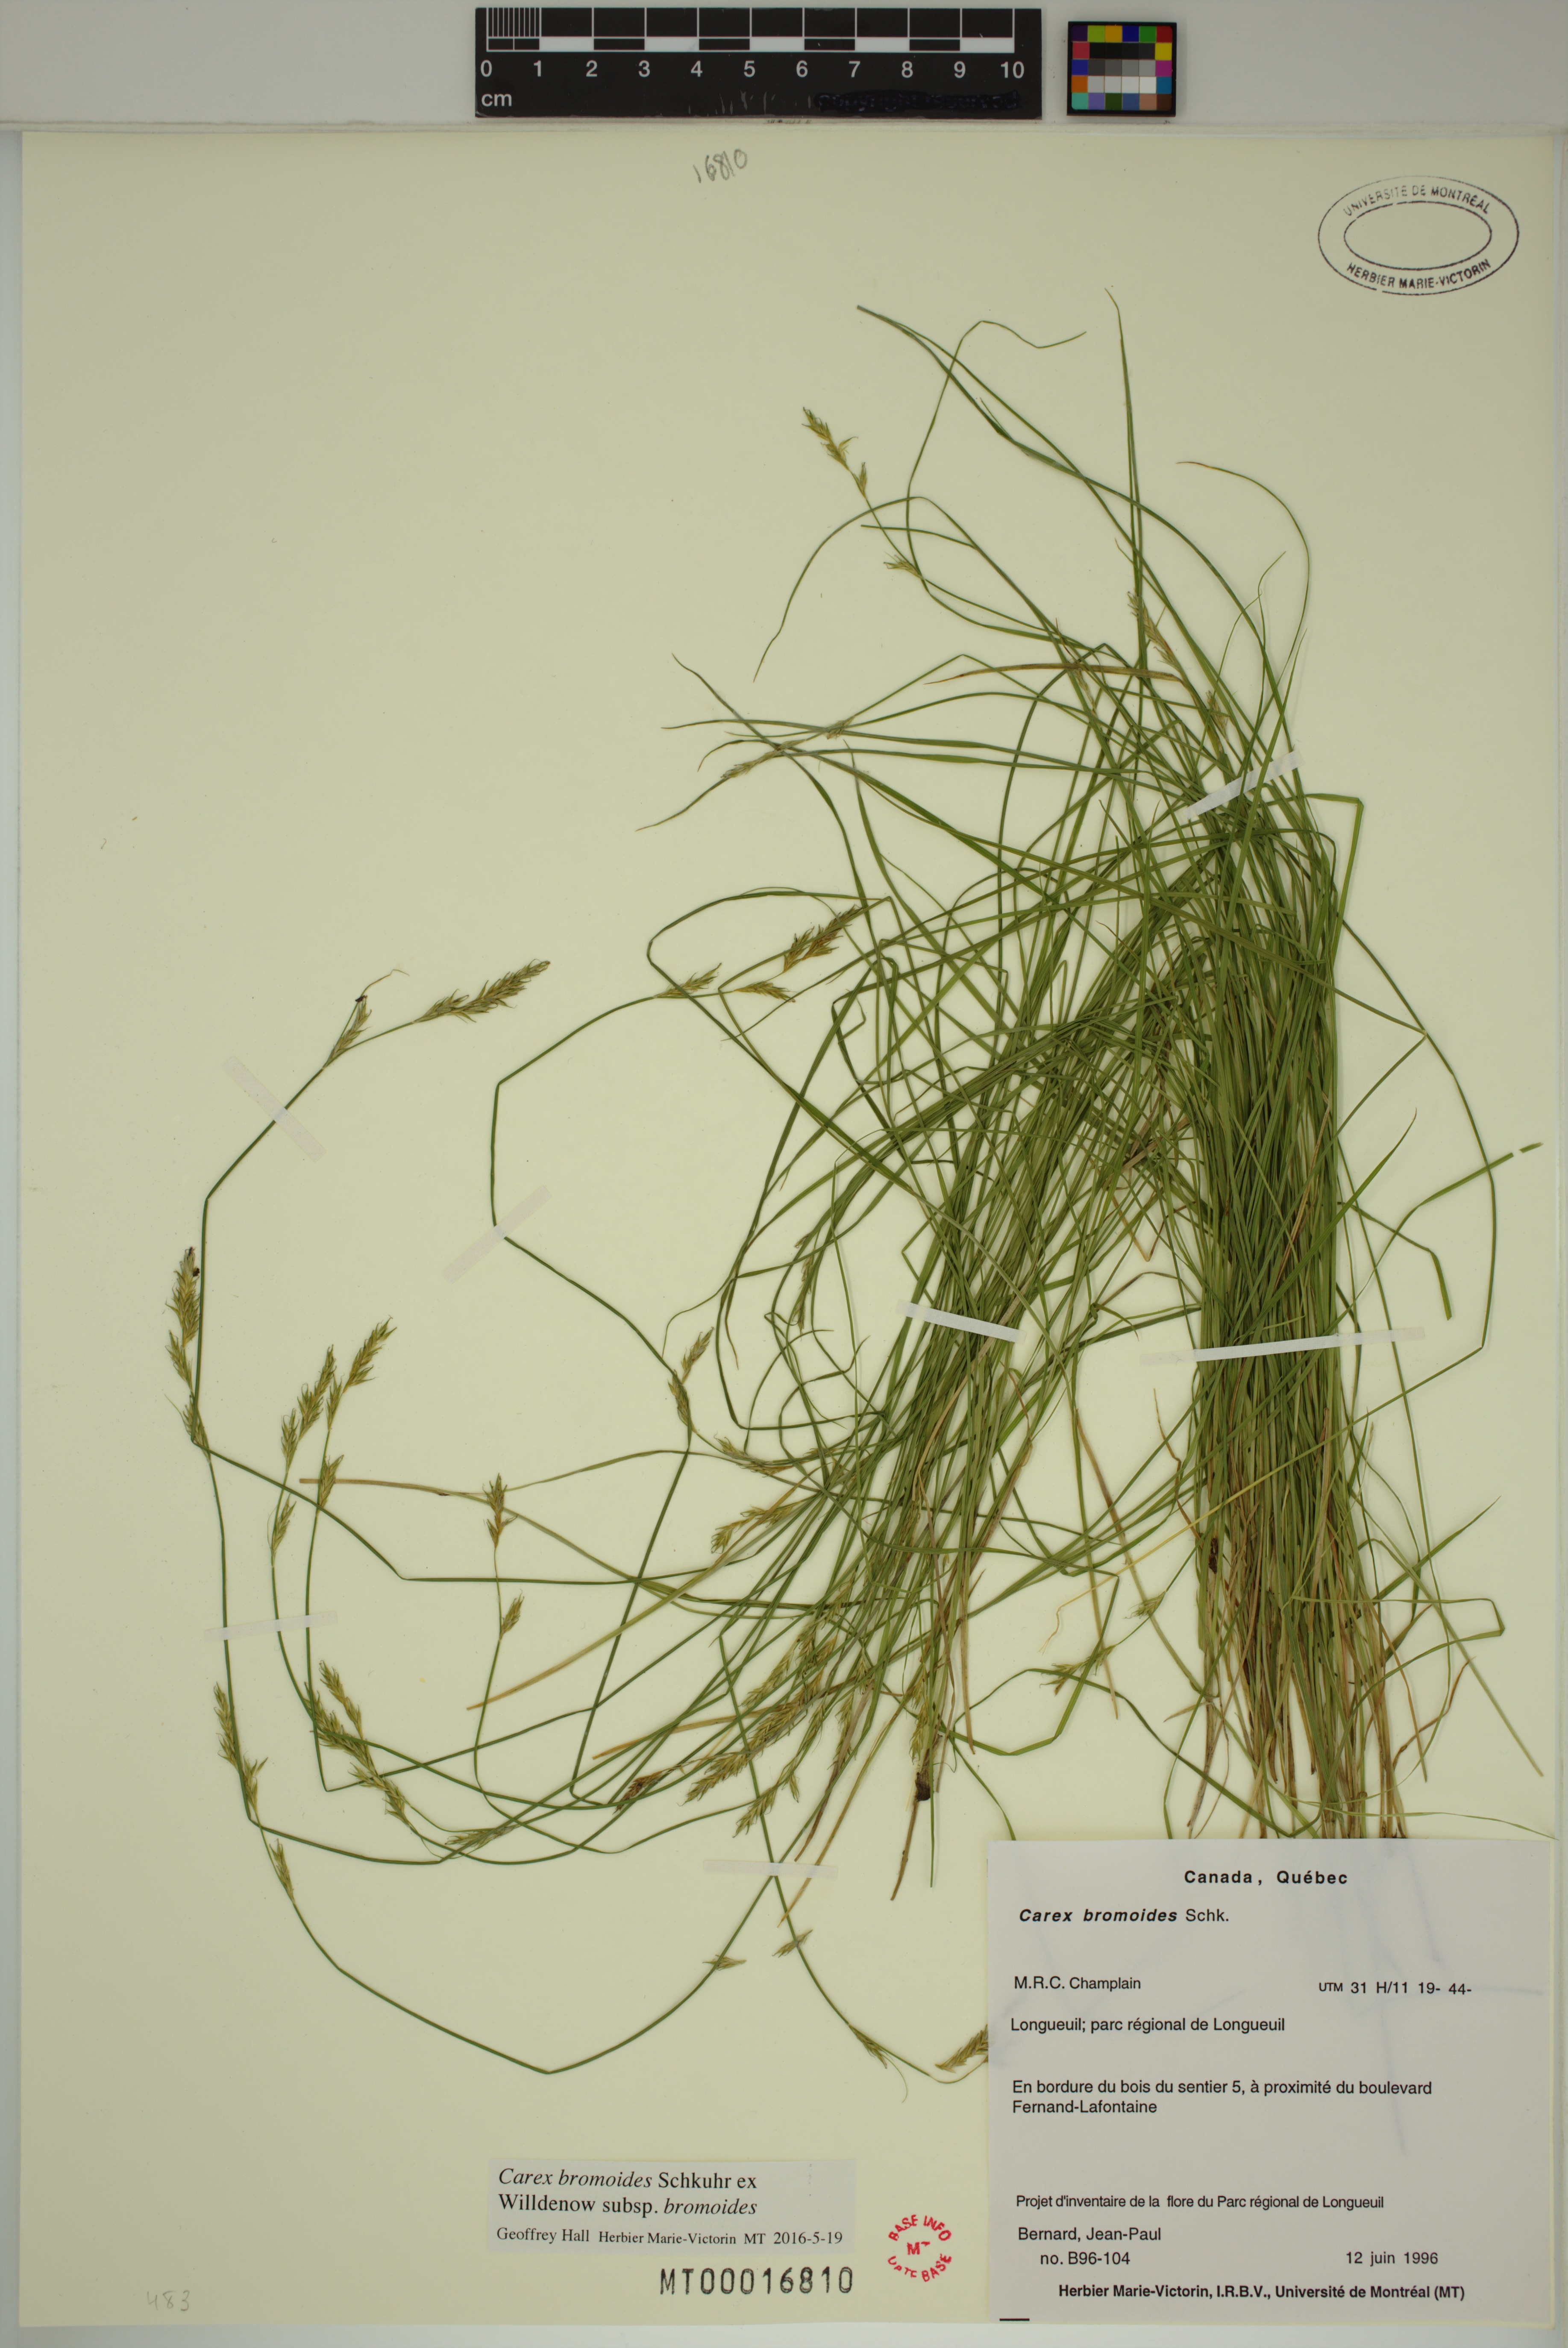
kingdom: Plantae
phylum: Tracheophyta
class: Liliopsida
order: Poales
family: Cyperaceae
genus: Carex
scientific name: Carex bromoides
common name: Brome hummock sedge
